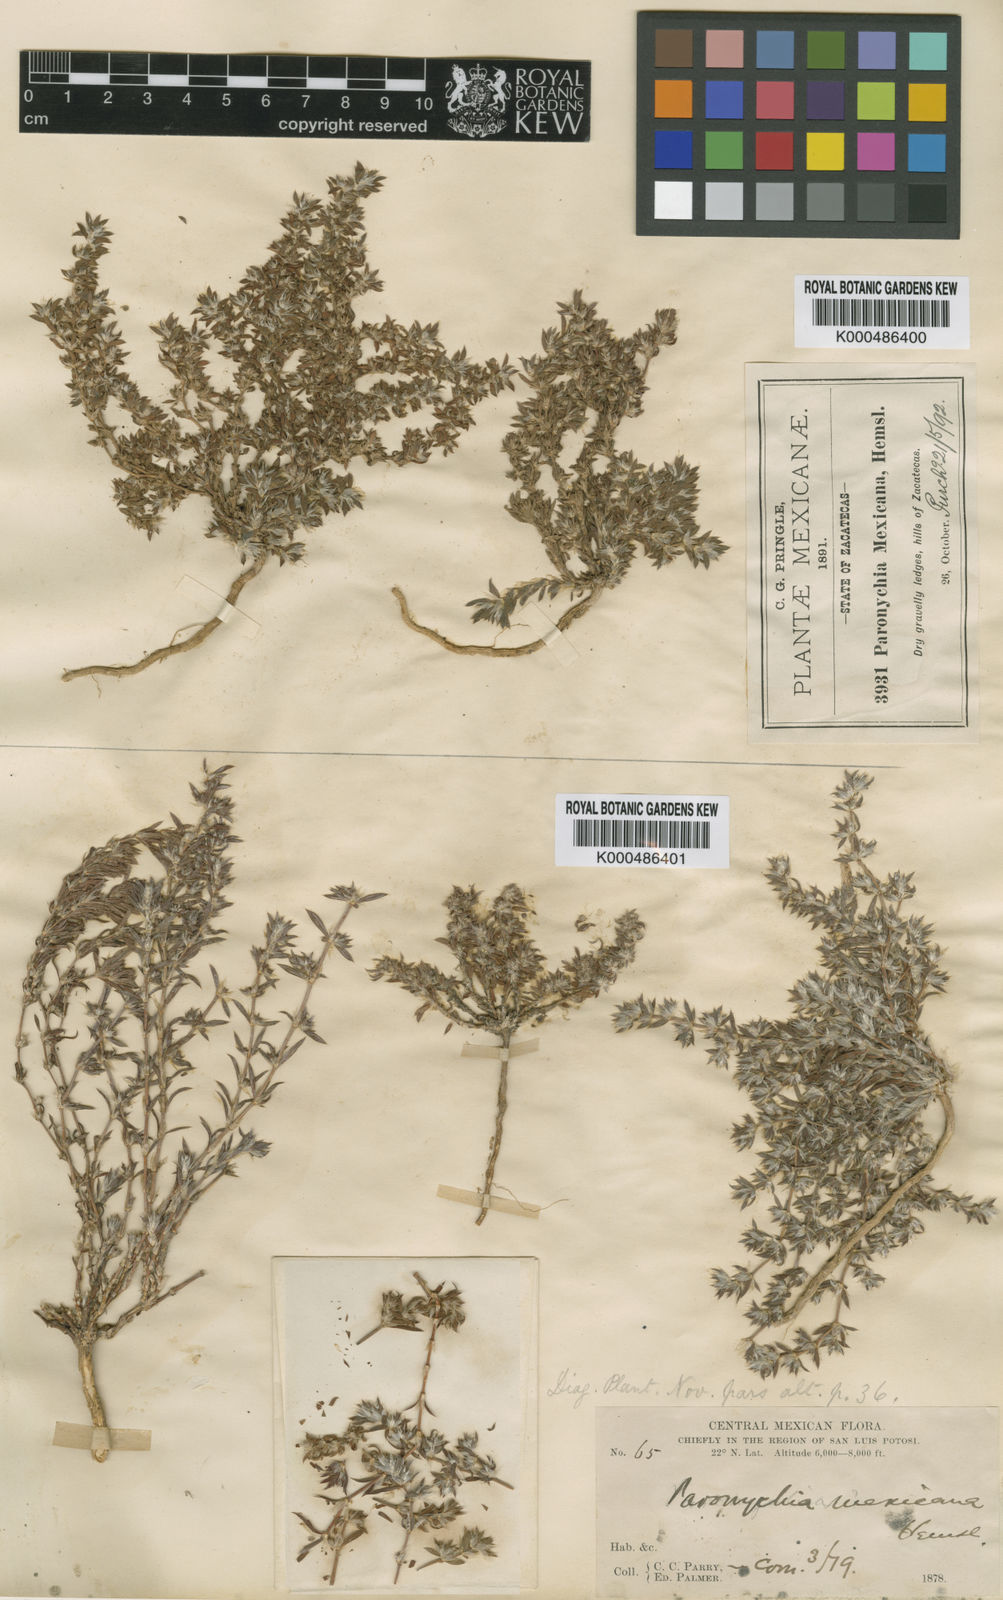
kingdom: Plantae
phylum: Tracheophyta
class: Magnoliopsida
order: Caryophyllales
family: Caryophyllaceae
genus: Paronychia
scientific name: Paronychia mexicana
